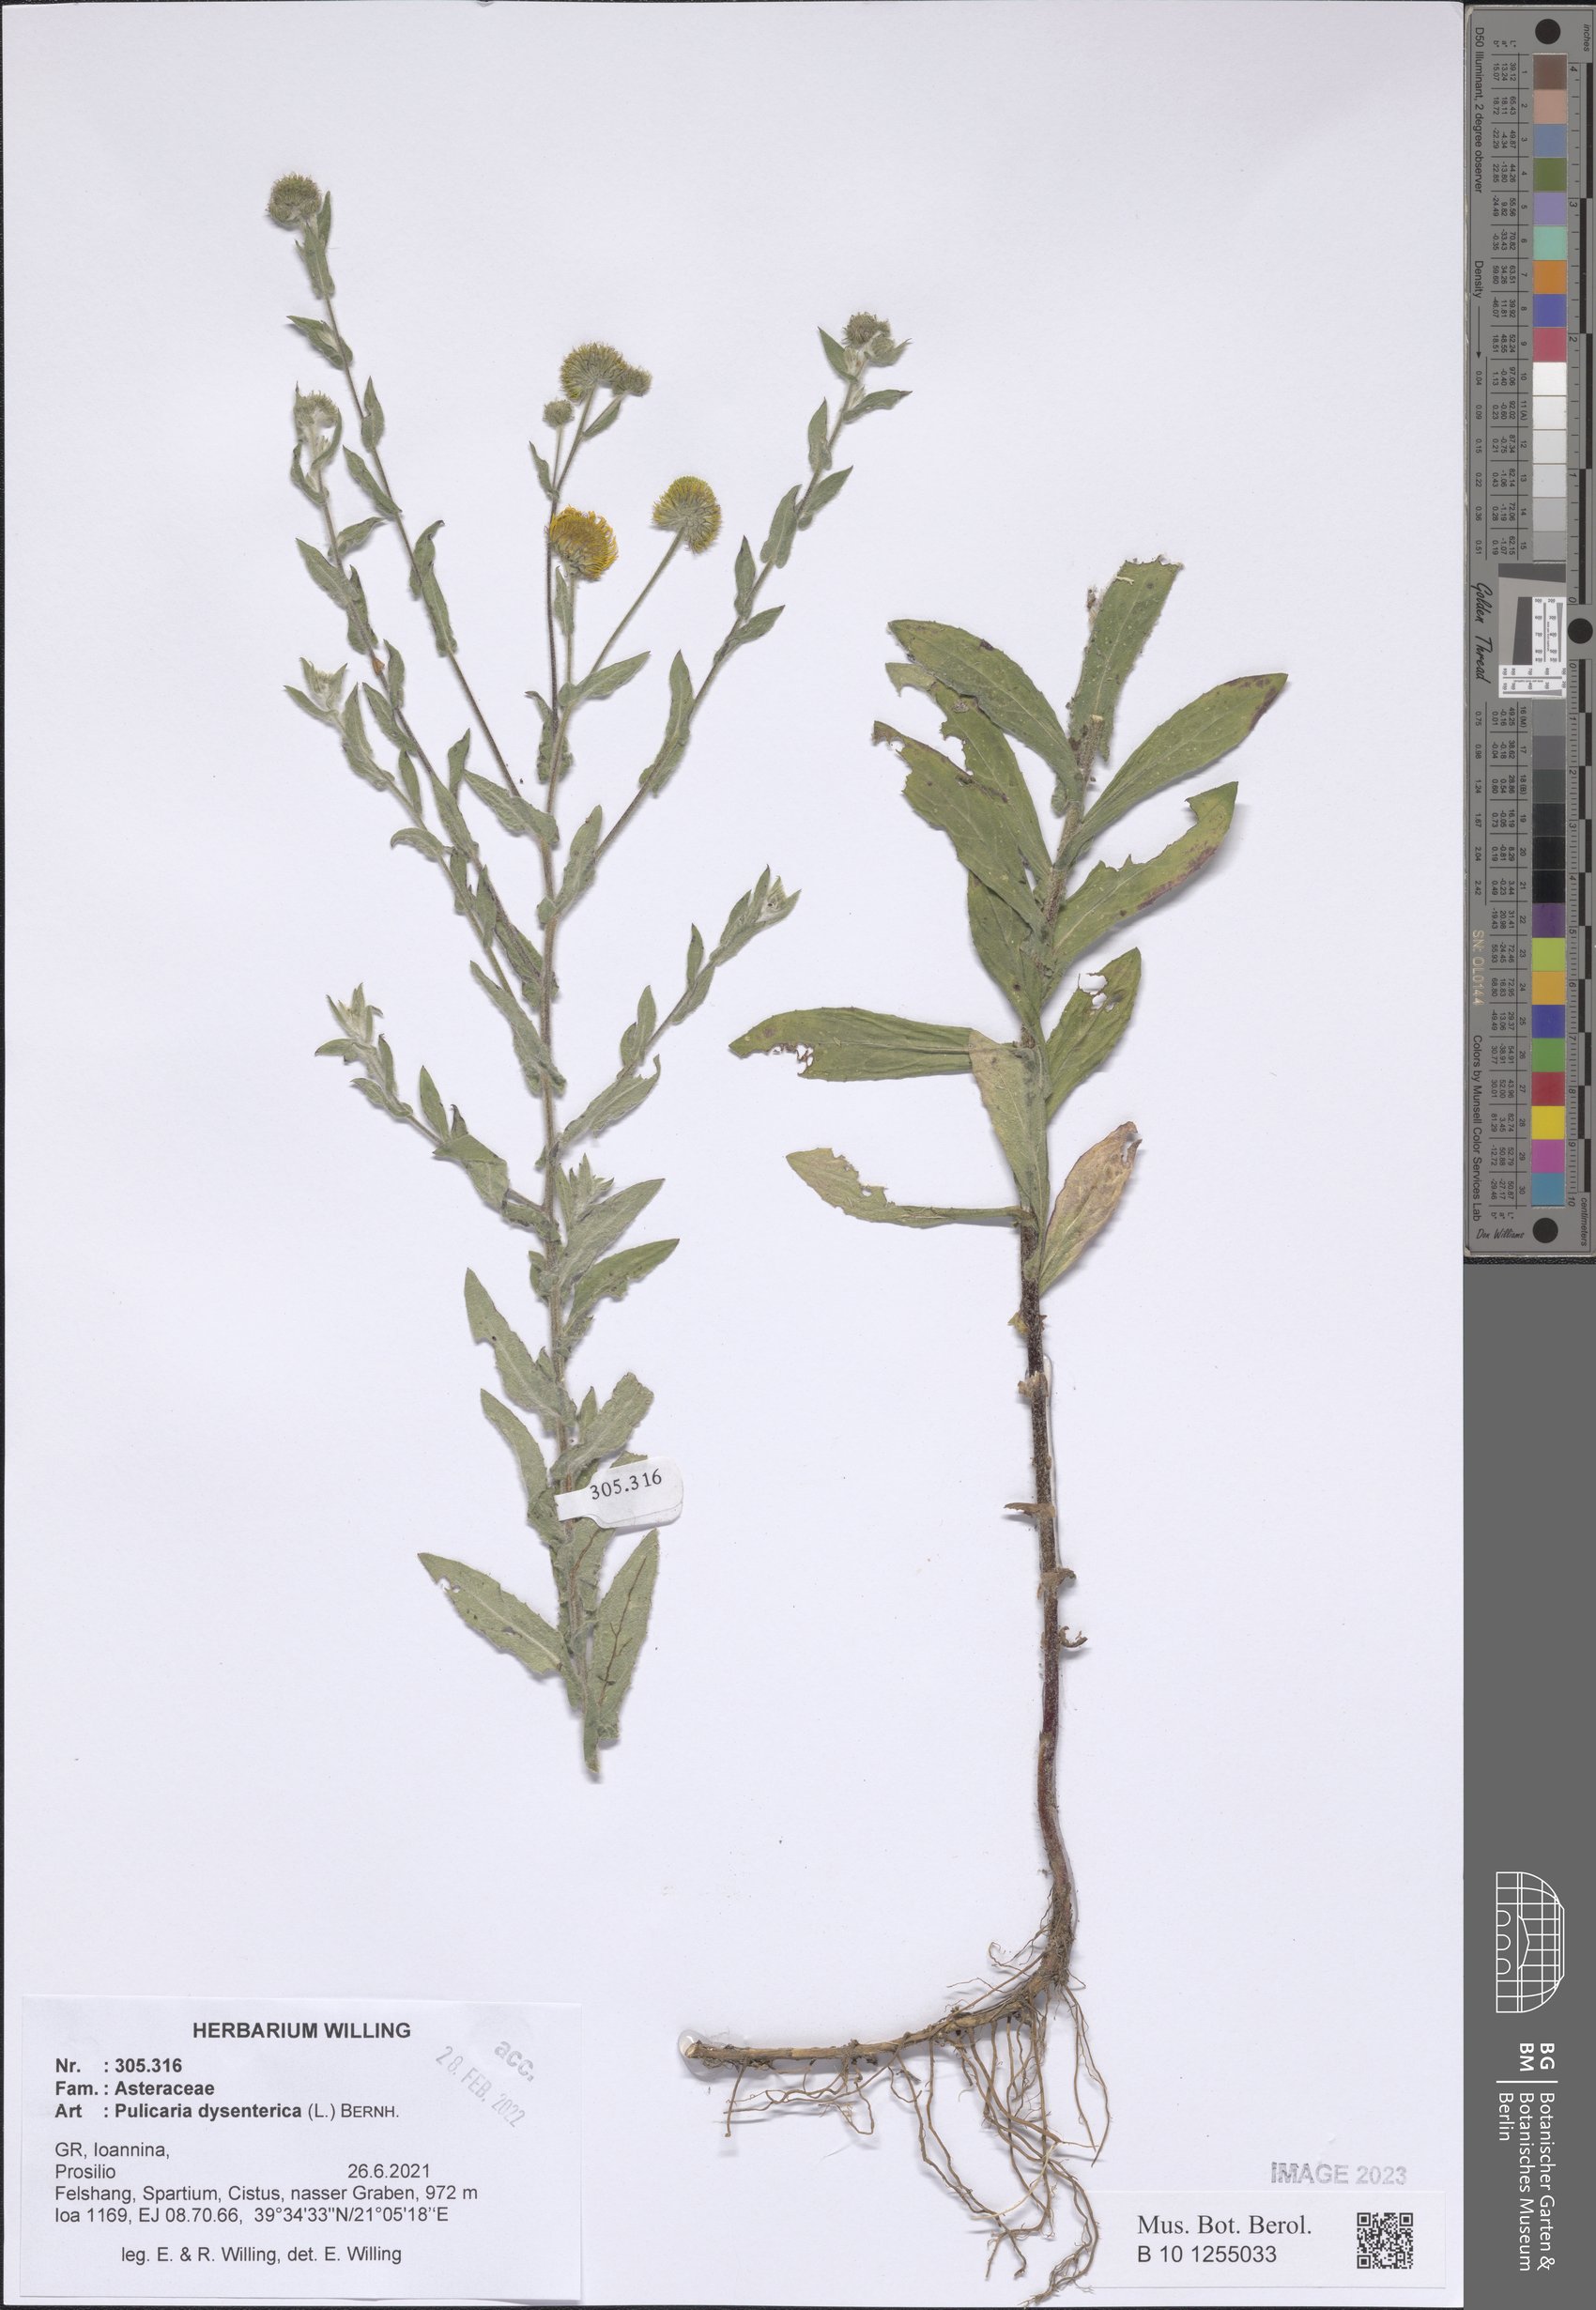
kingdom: Plantae
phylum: Tracheophyta
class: Magnoliopsida
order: Asterales
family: Asteraceae
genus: Pulicaria
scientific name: Pulicaria dysenterica
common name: Common fleabane
